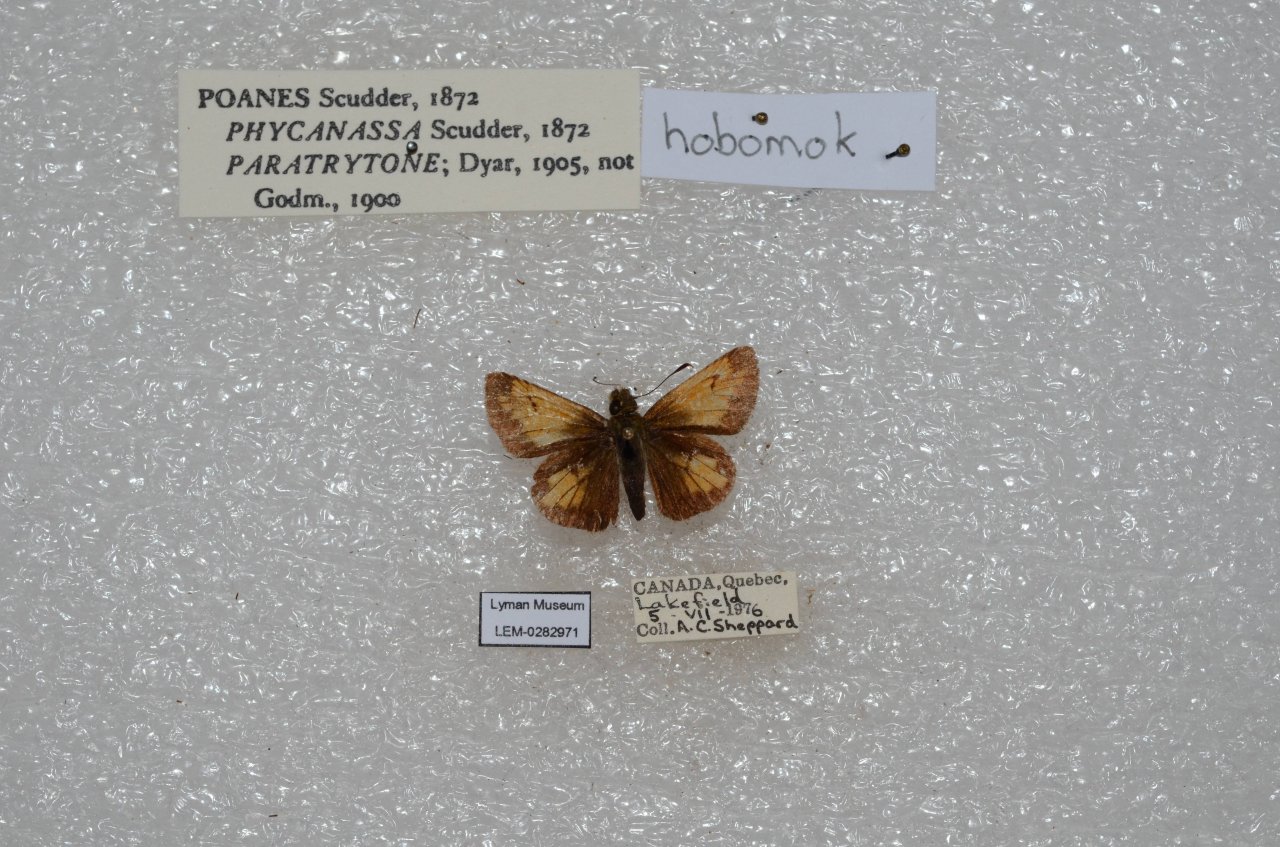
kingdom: Animalia
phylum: Arthropoda
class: Insecta
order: Lepidoptera
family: Hesperiidae
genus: Lon
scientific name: Lon hobomok
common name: Hobomok Skipper
